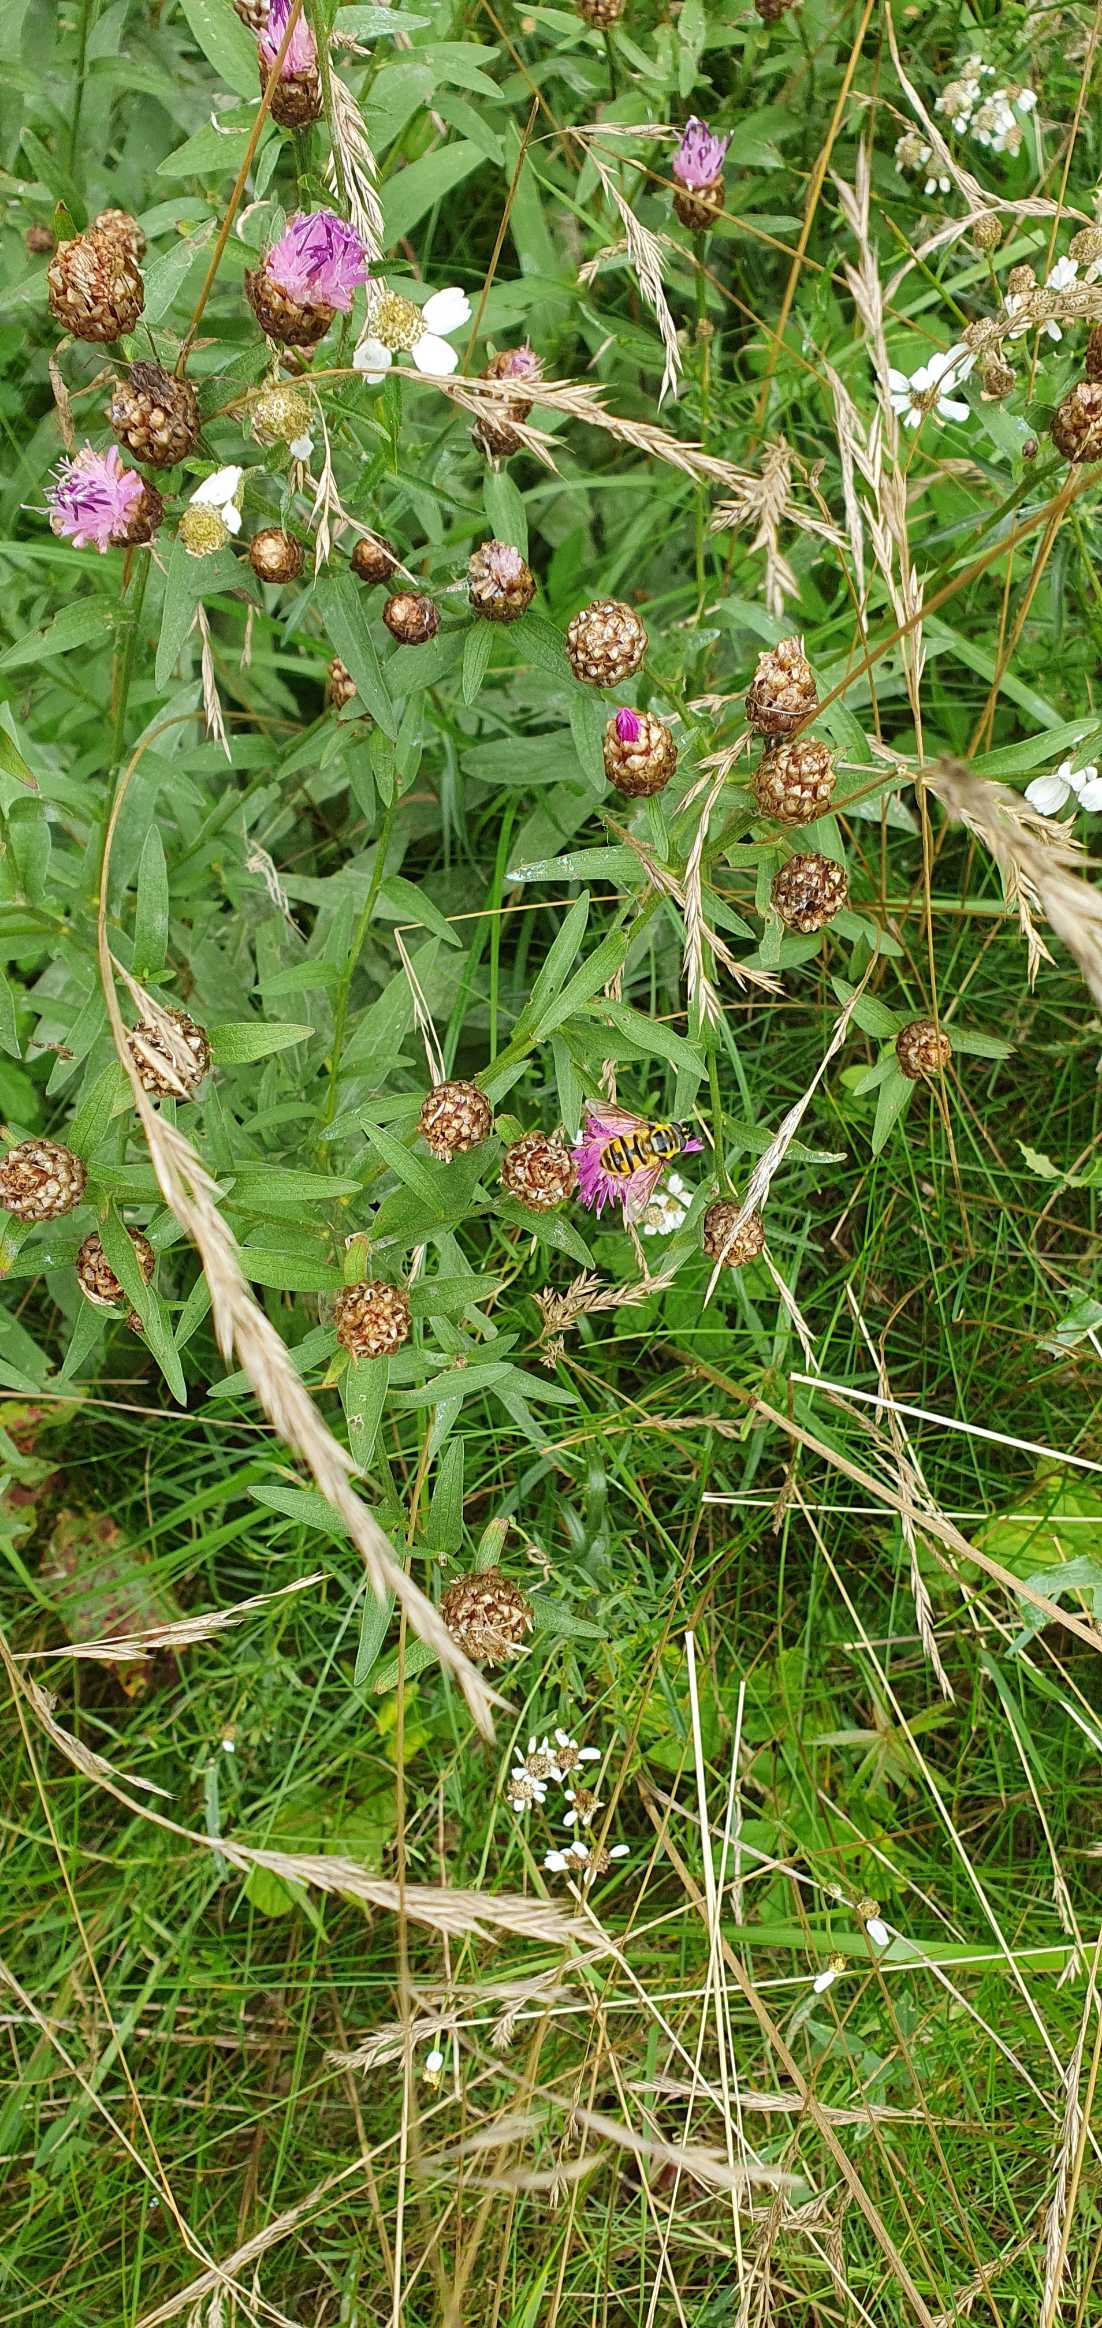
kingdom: Animalia
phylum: Arthropoda
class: Insecta
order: Diptera
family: Syrphidae
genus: Myathropa
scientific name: Myathropa florea
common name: Dødningehoved-svirreflue
